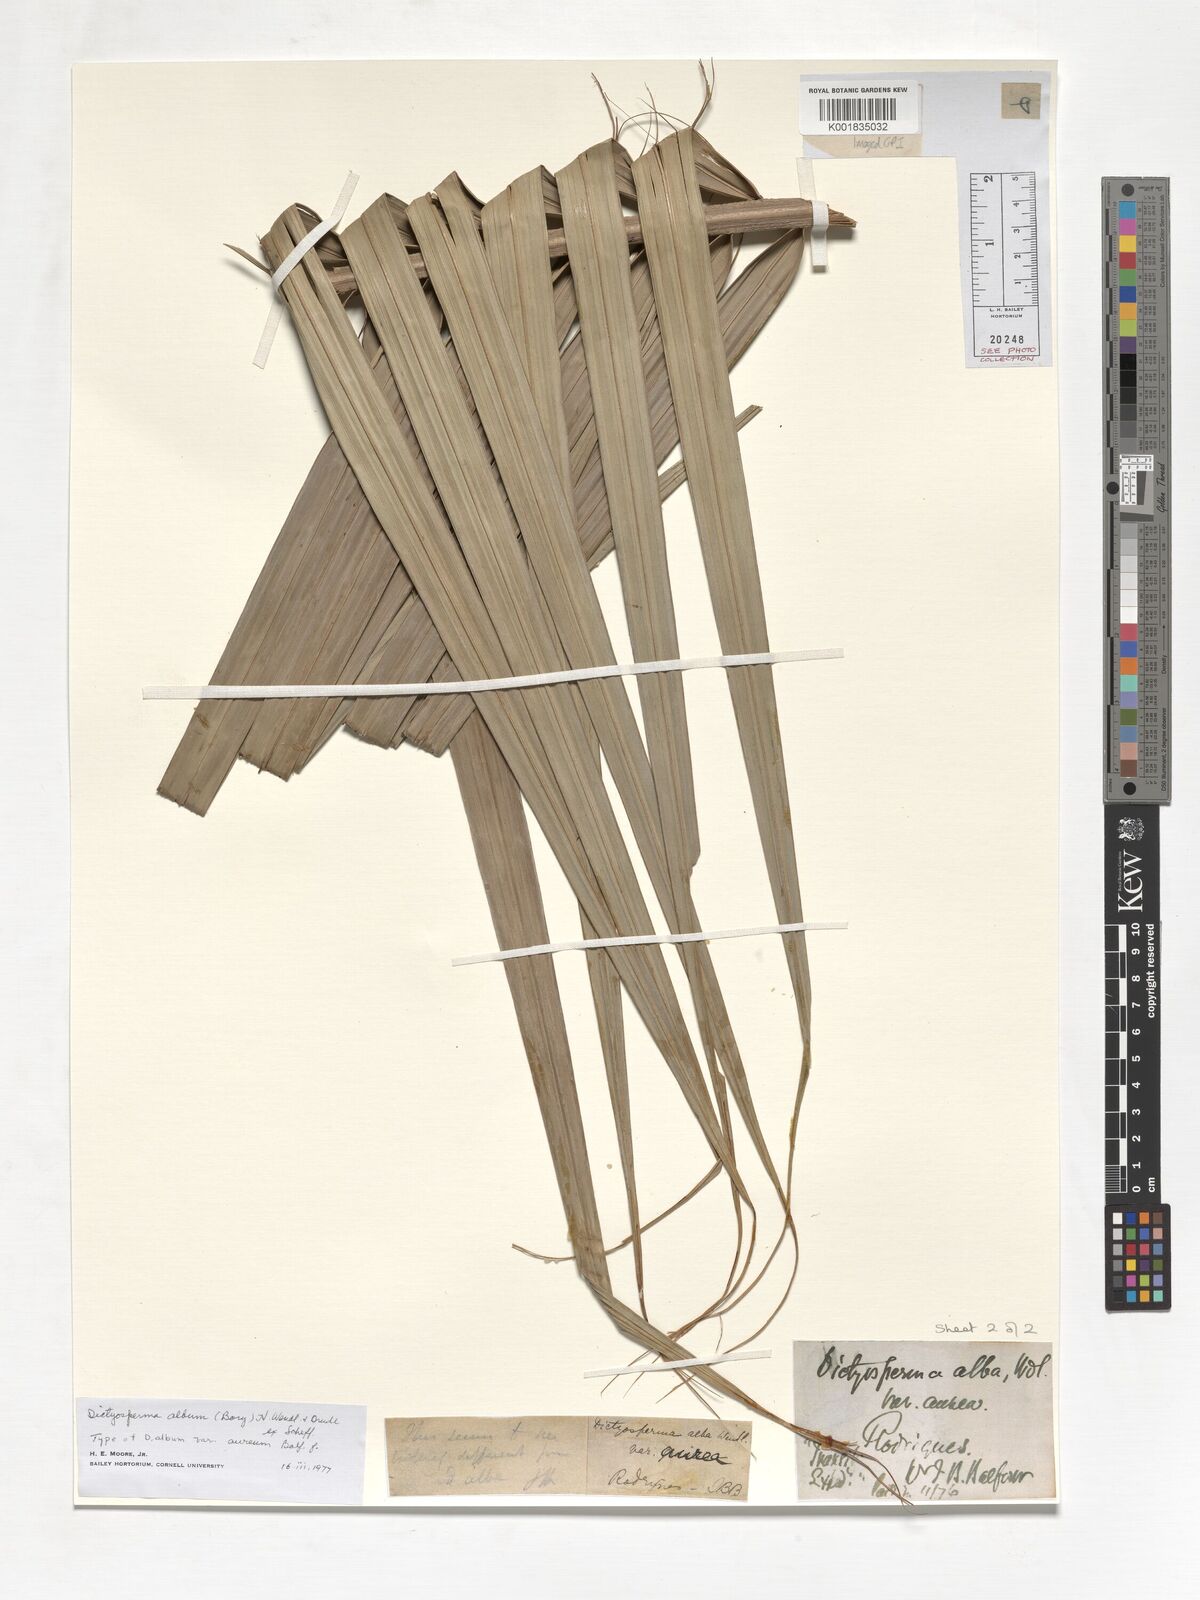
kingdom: Plantae
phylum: Tracheophyta
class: Liliopsida
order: Arecales
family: Arecaceae
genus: Dictyosperma
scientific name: Dictyosperma album
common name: Common princess palm
